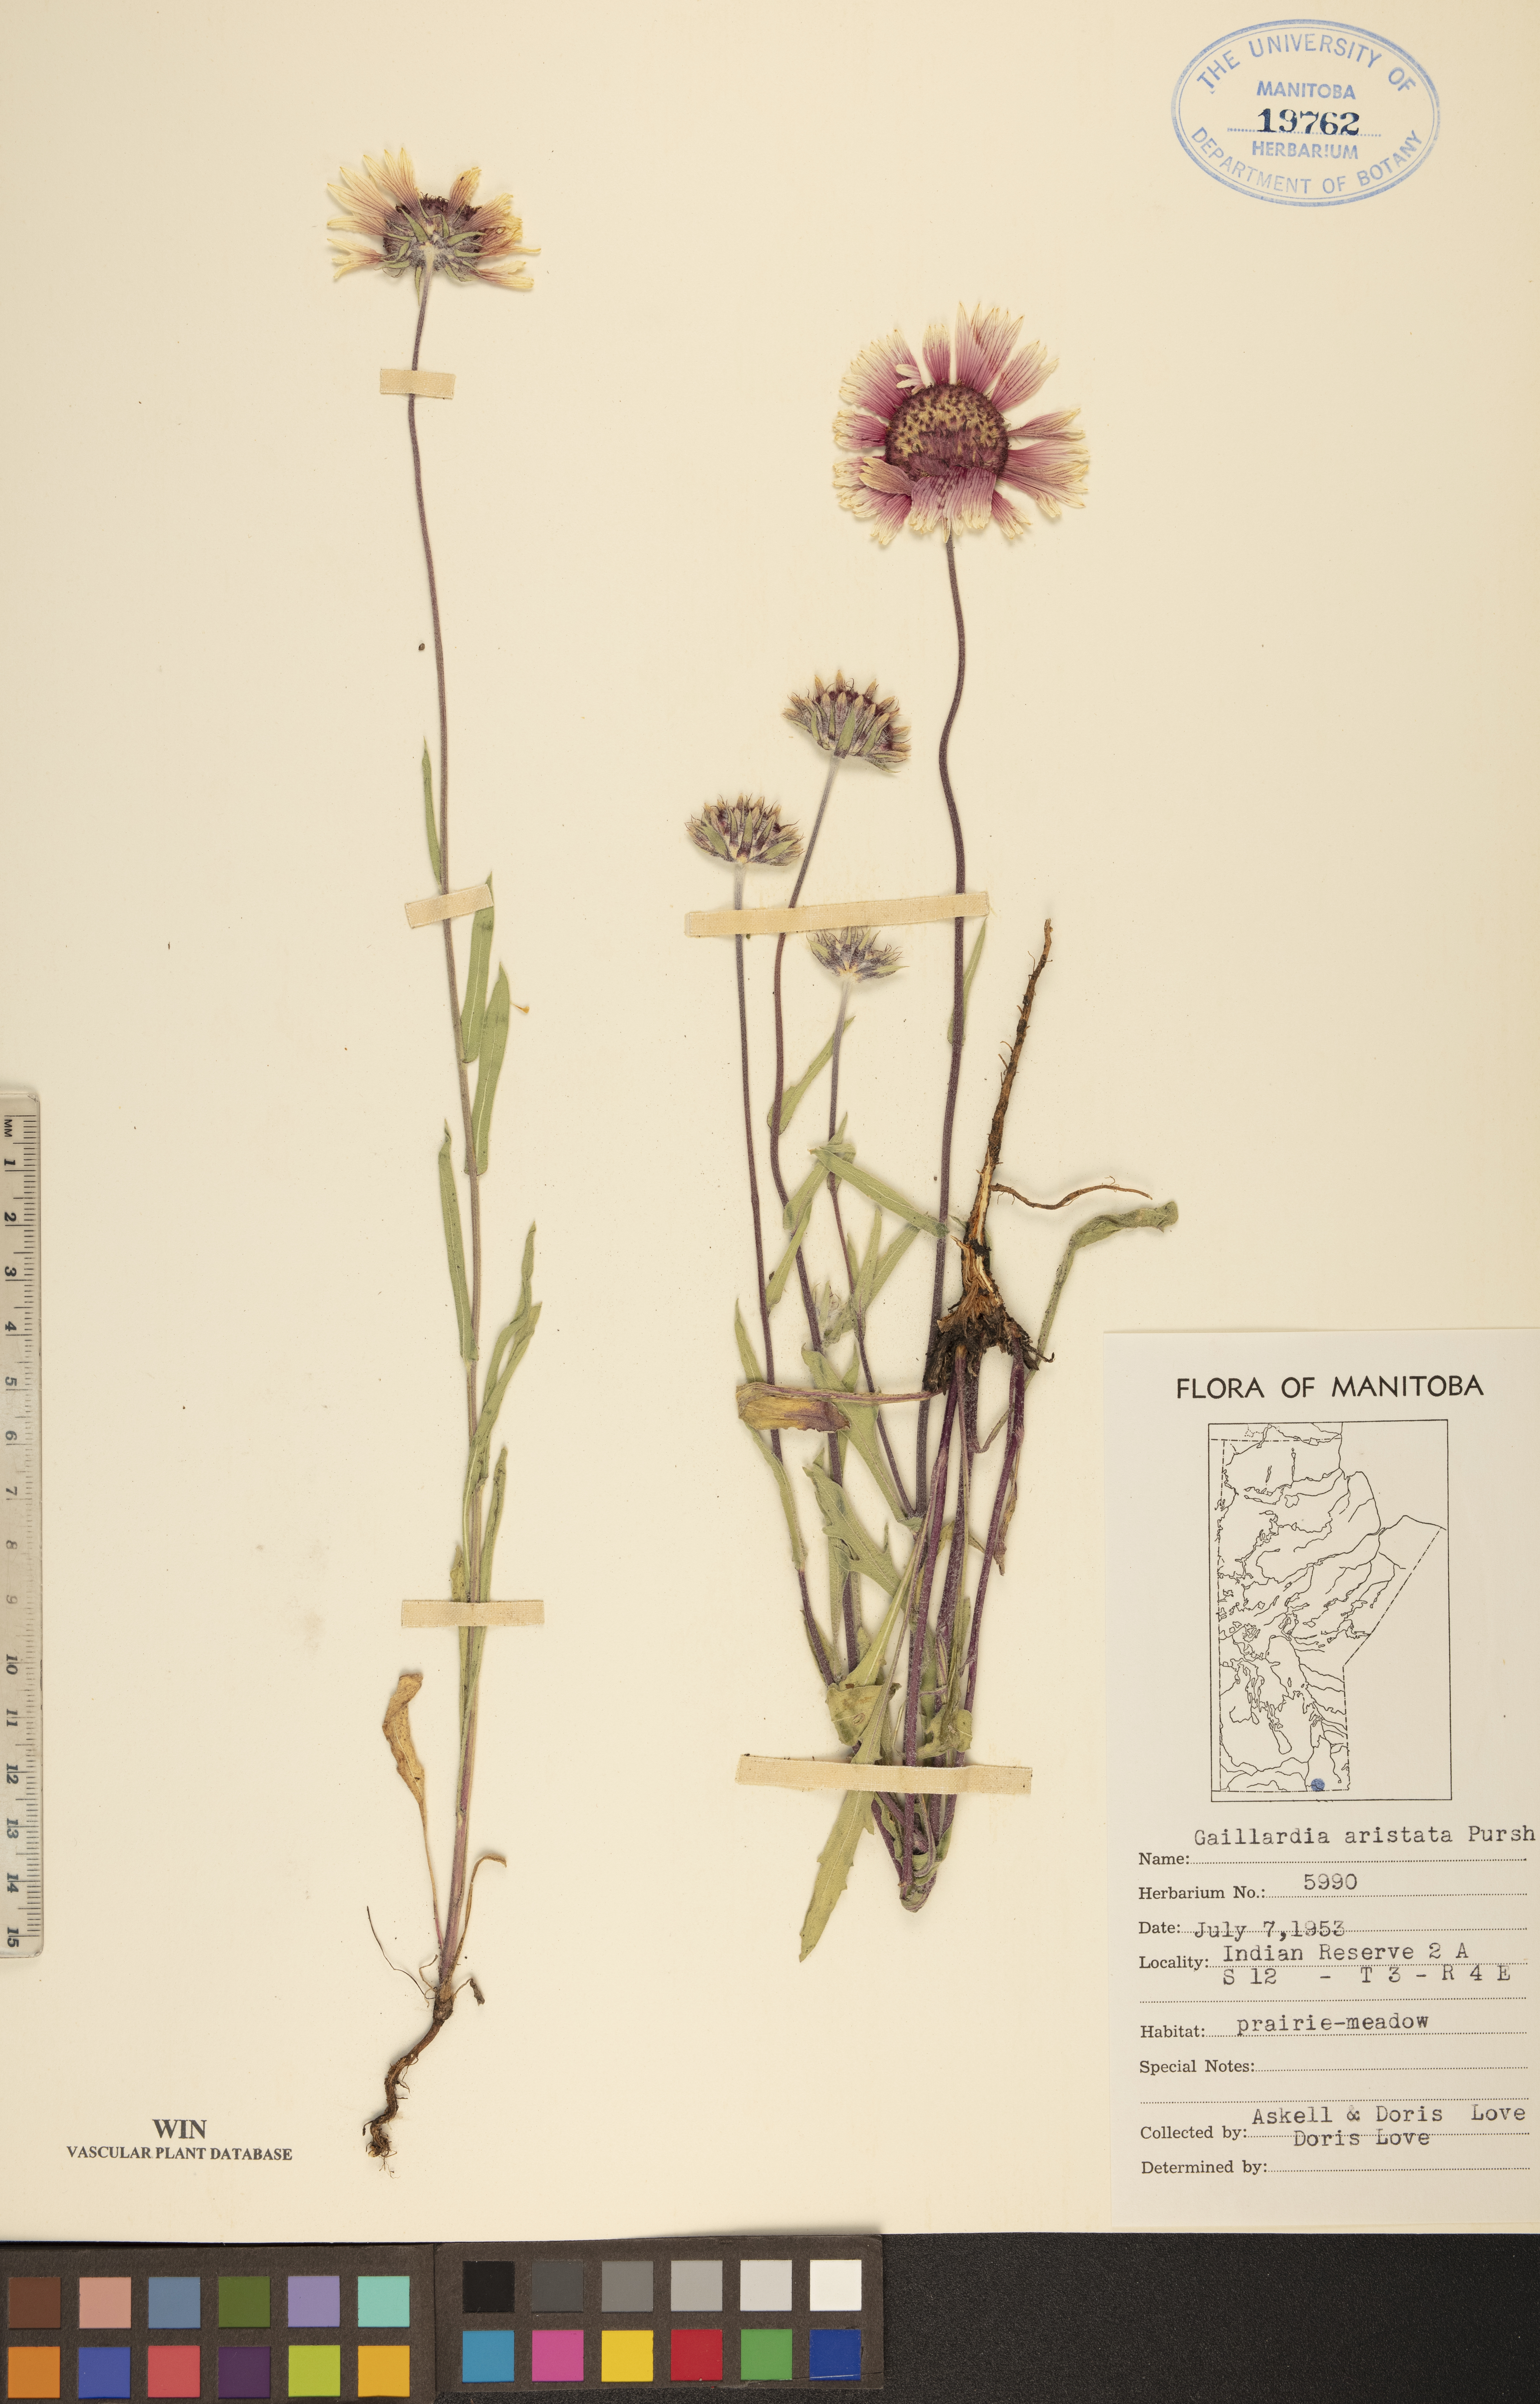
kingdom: Plantae
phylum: Tracheophyta
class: Magnoliopsida
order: Asterales
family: Asteraceae
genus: Gaillardia
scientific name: Gaillardia aristata
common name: Blanket-flower
